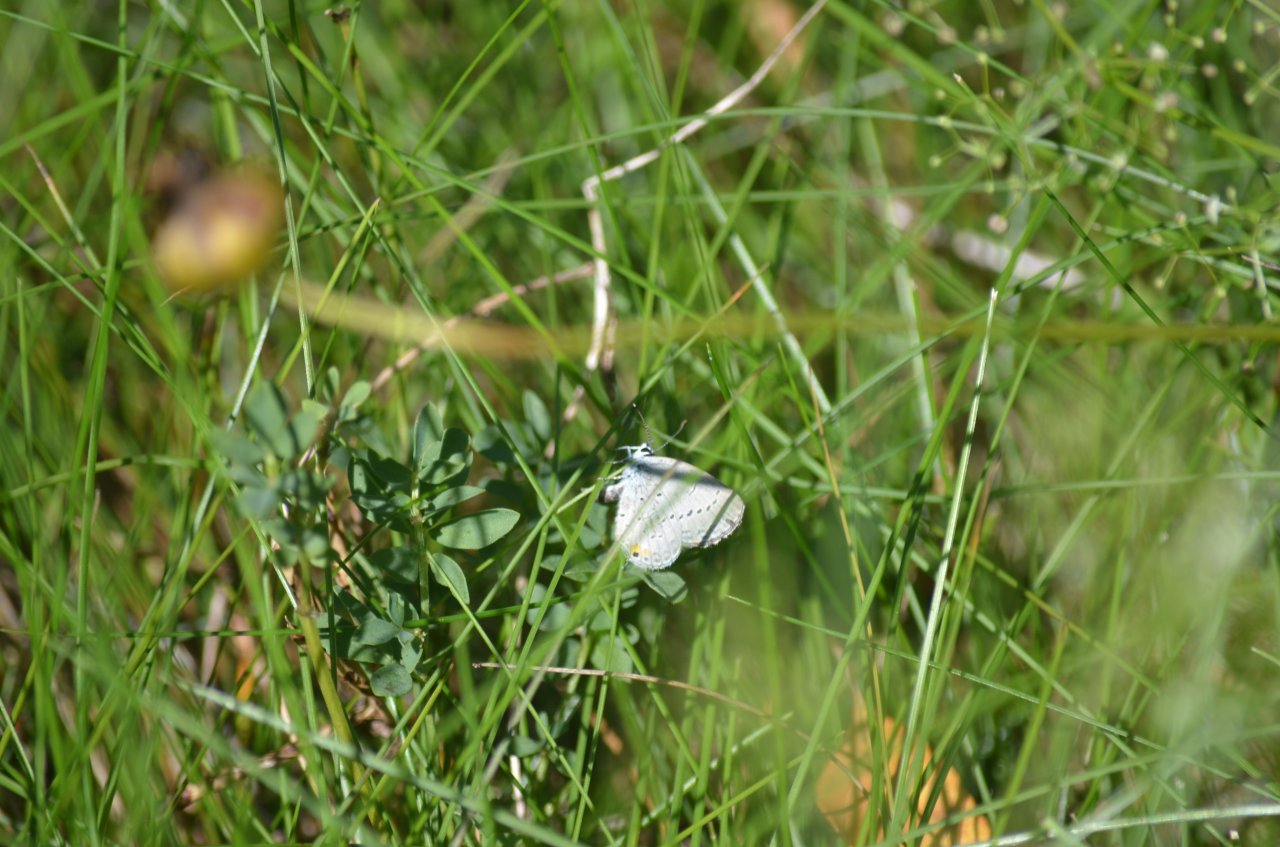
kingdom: Animalia
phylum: Arthropoda
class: Insecta
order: Lepidoptera
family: Lycaenidae
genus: Elkalyce
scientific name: Elkalyce comyntas
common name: Eastern Tailed-Blue
